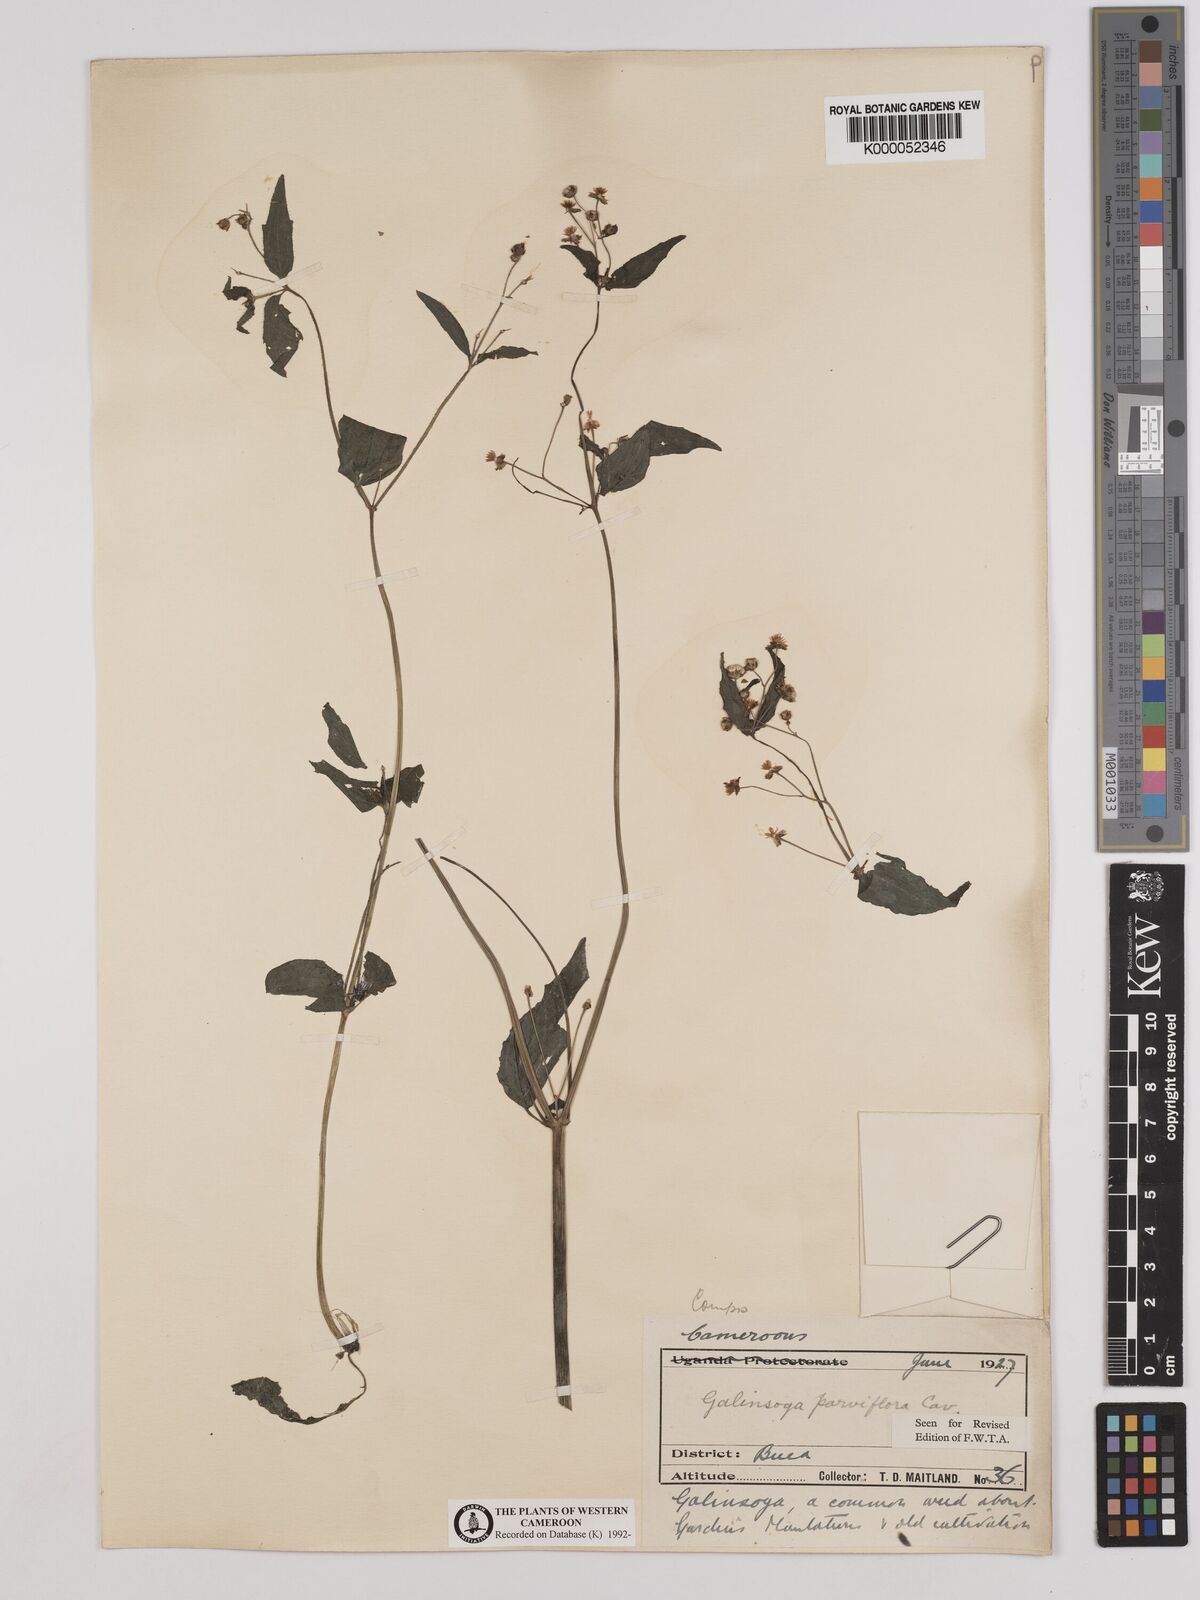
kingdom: Plantae
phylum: Tracheophyta
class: Magnoliopsida
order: Asterales
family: Asteraceae
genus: Galinsoga
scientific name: Galinsoga parviflora
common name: Gallant soldier
